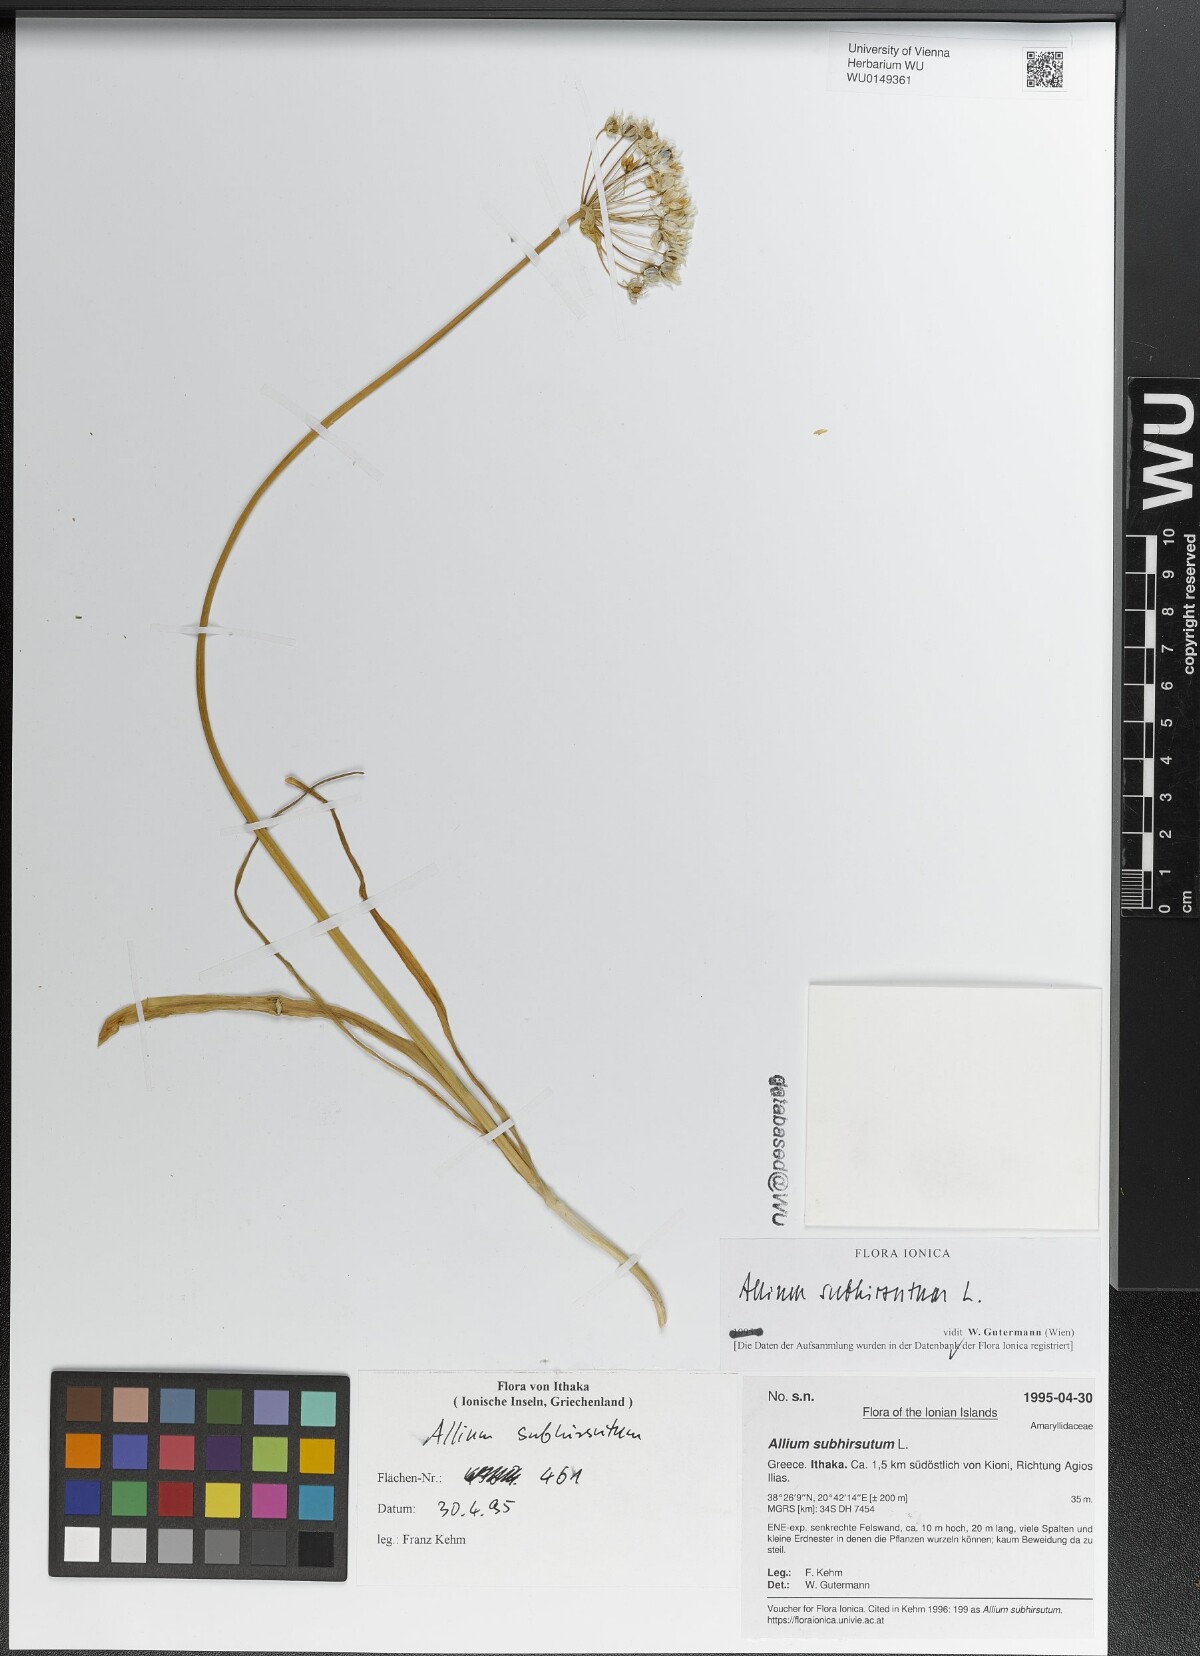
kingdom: Plantae
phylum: Tracheophyta
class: Liliopsida
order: Asparagales
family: Amaryllidaceae
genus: Allium
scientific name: Allium subhirsutum
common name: Hairy garlic
